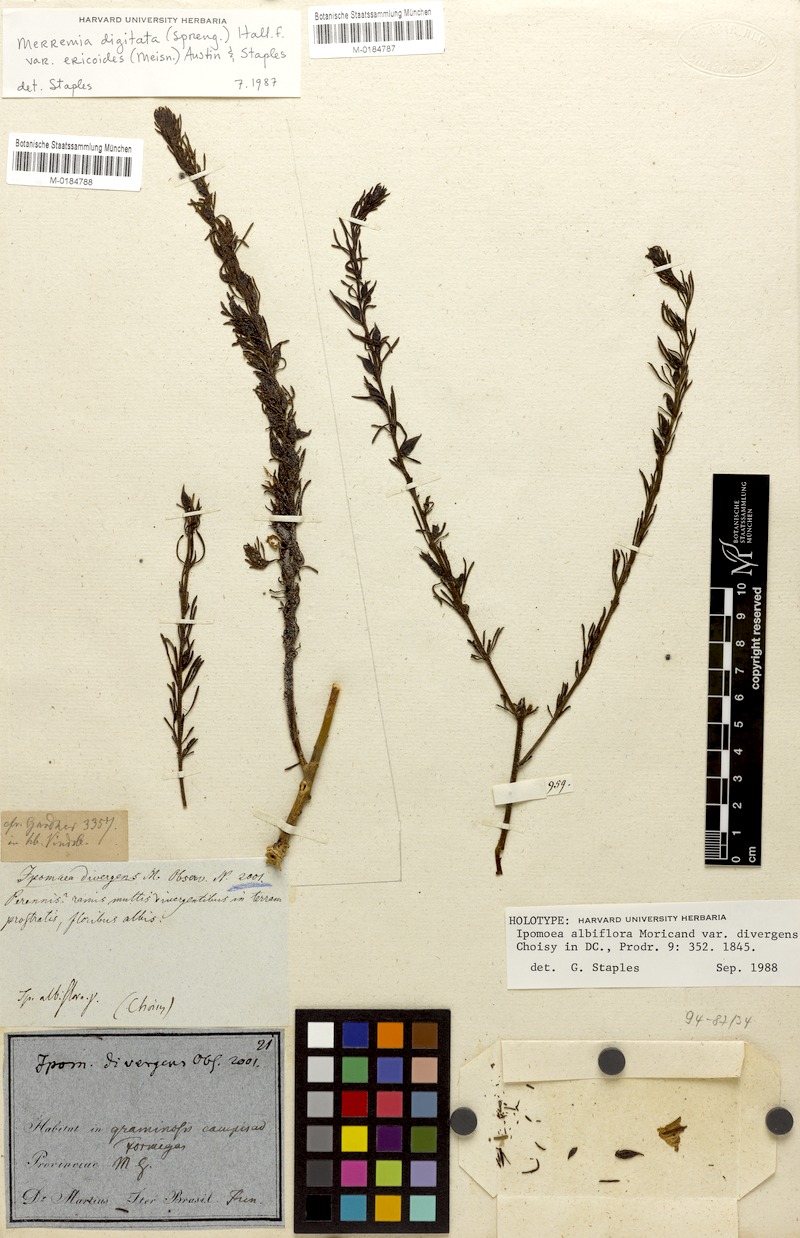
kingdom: Plantae
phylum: Tracheophyta
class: Magnoliopsida
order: Solanales
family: Convolvulaceae
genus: Distimake
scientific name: Distimake ericoides
